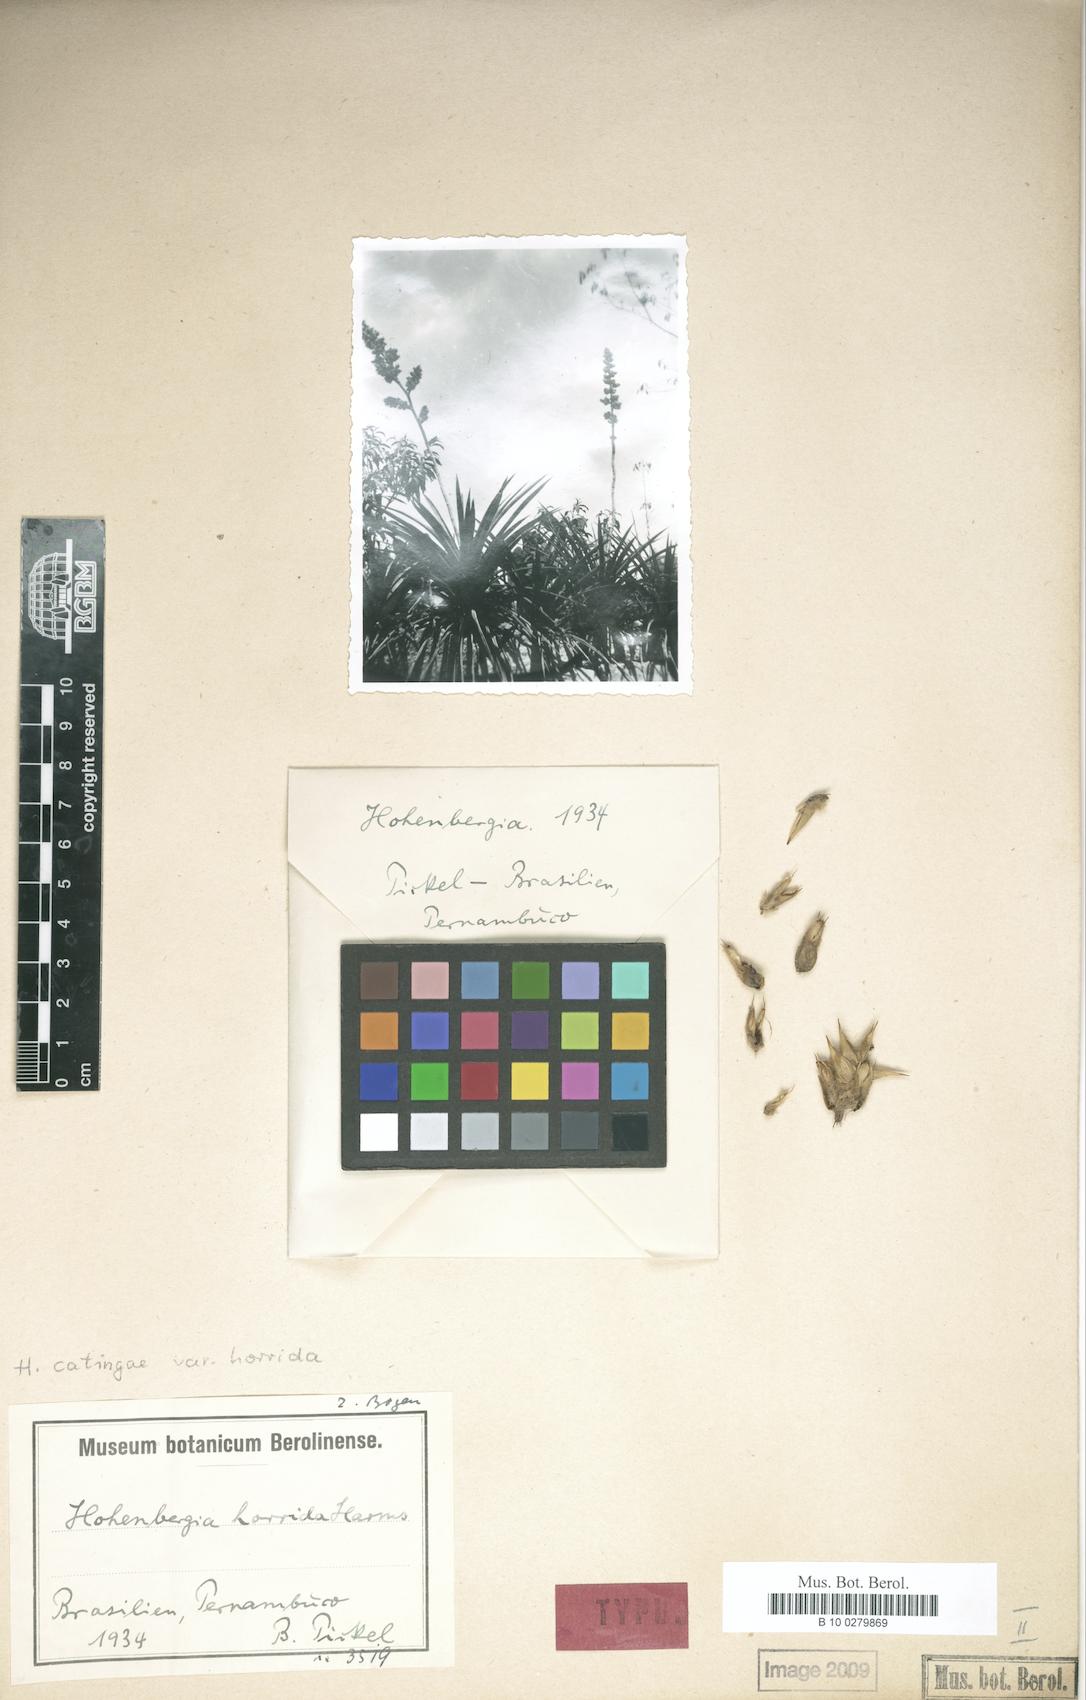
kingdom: Plantae
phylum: Tracheophyta
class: Liliopsida
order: Poales
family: Bromeliaceae
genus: Hohenbergia
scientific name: Hohenbergia horrida
